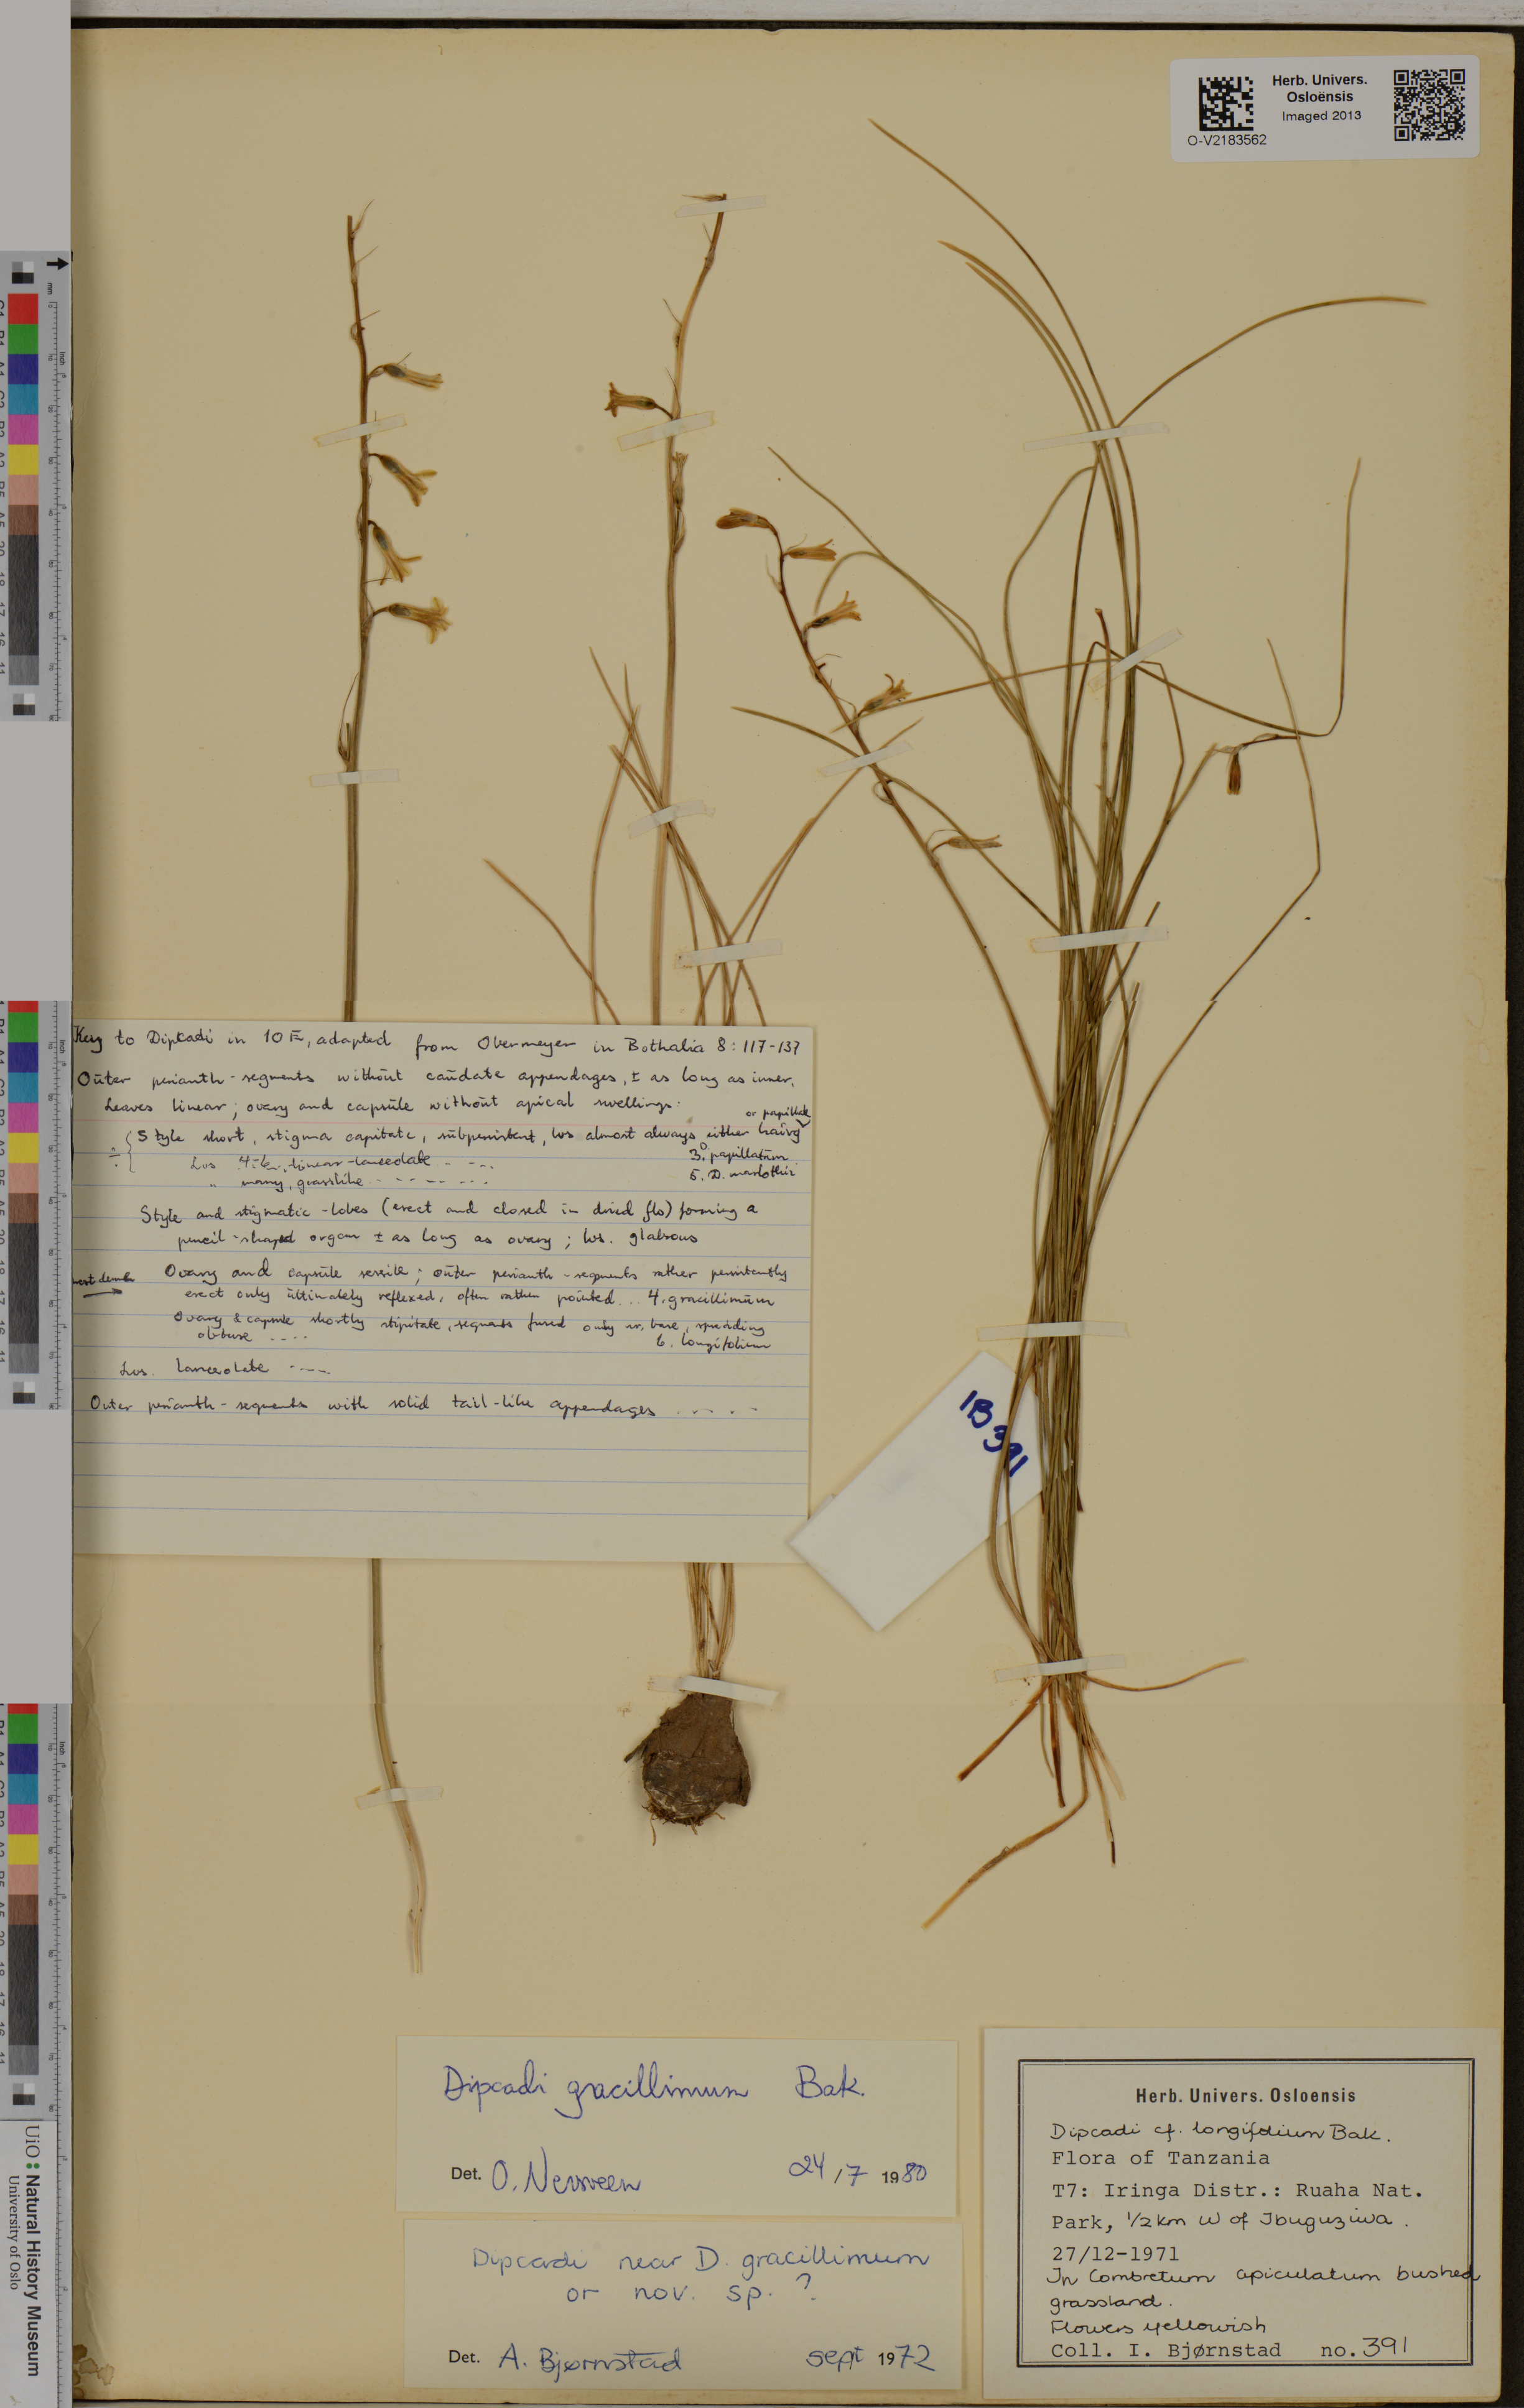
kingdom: Plantae
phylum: Tracheophyta
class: Liliopsida
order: Asparagales
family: Asparagaceae
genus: Dipcadi
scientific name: Dipcadi gracillimum
